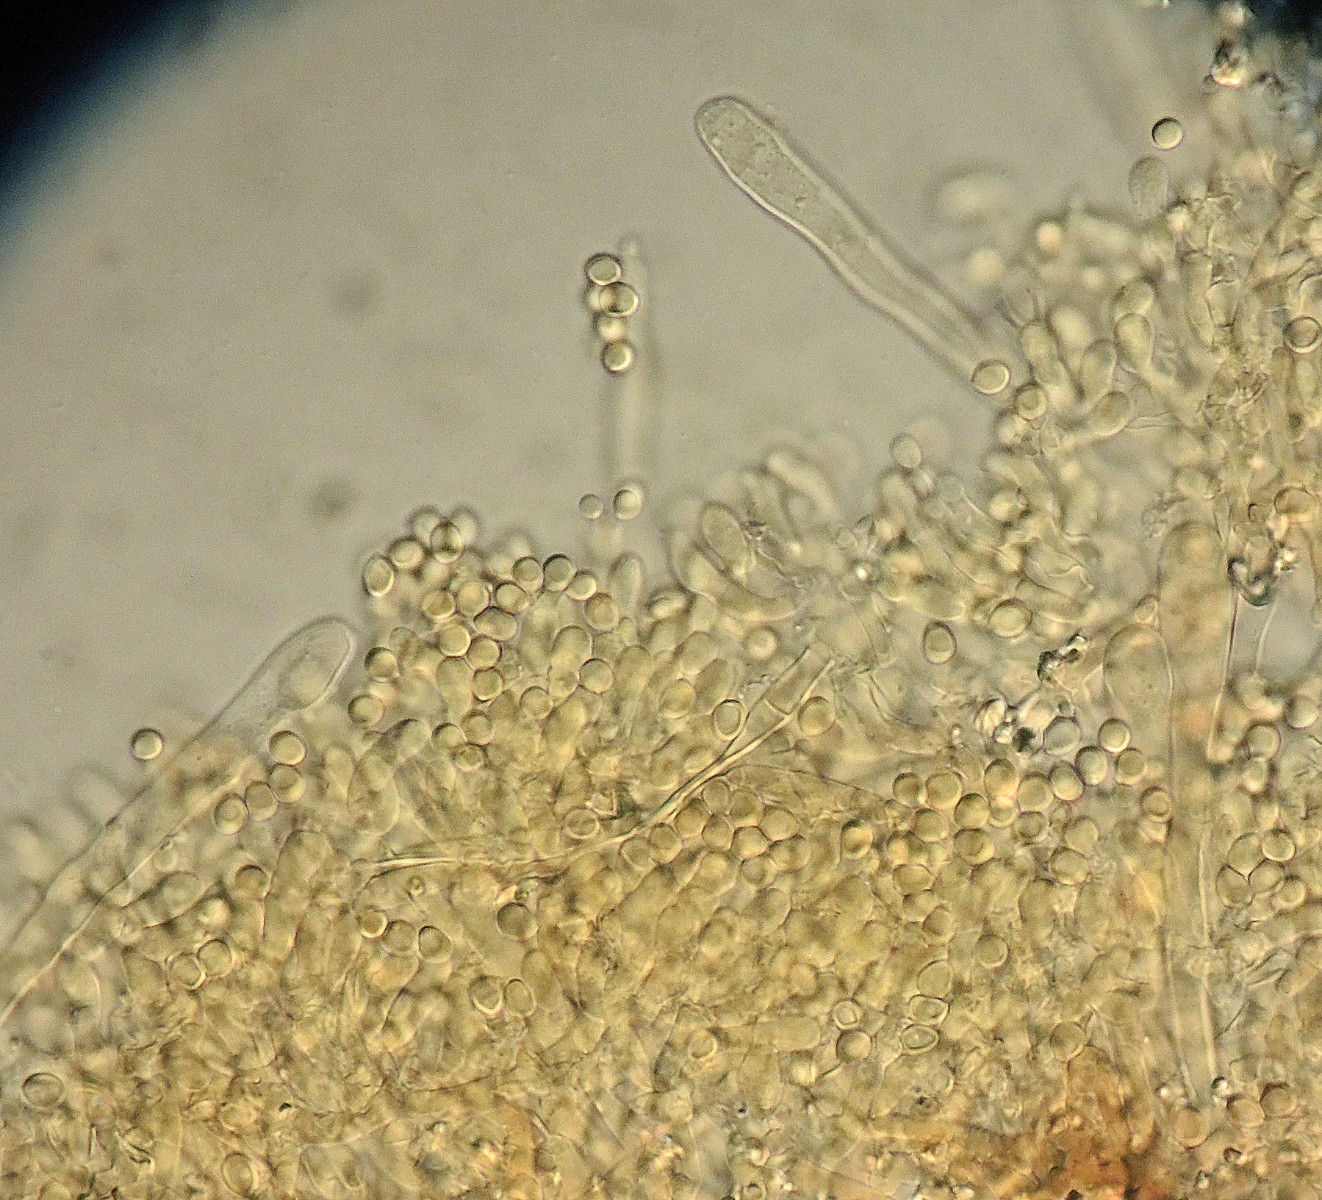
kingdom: Fungi
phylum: Basidiomycota
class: Agaricomycetes
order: Hymenochaetales
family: Schizoporaceae
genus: Xylodon
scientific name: Xylodon detriticus
